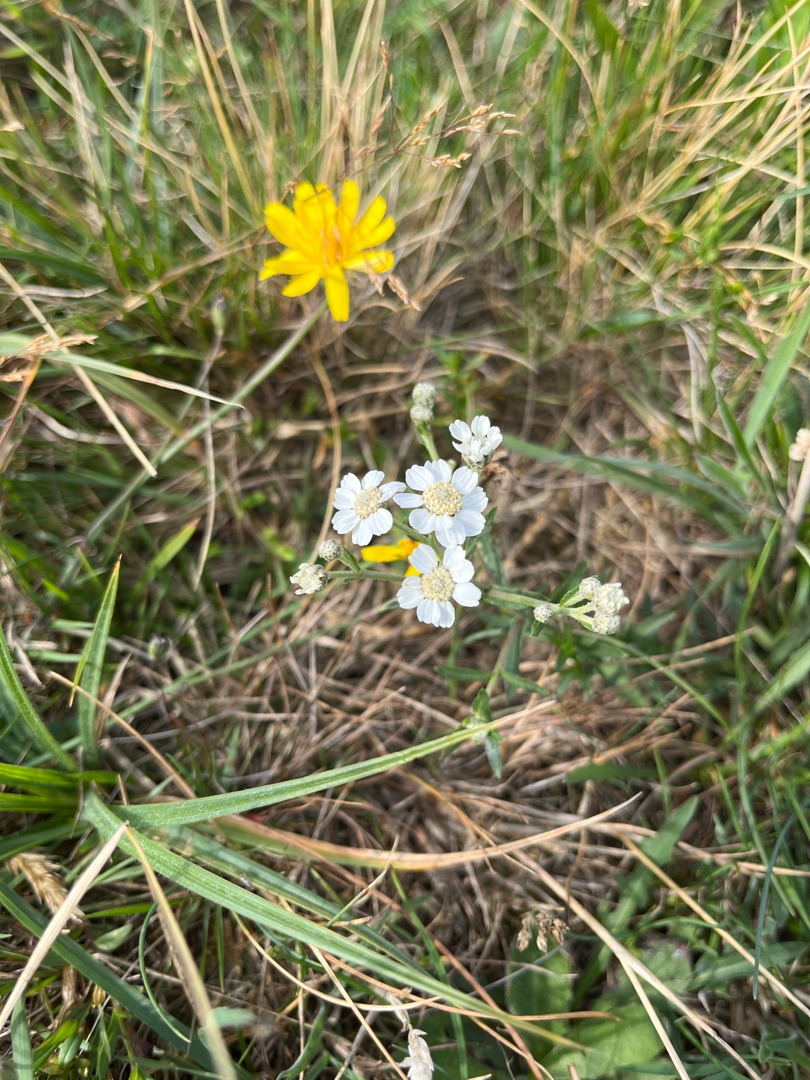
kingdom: Plantae
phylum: Tracheophyta
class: Magnoliopsida
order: Asterales
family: Asteraceae
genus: Achillea
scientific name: Achillea ptarmica
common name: Nyse-røllike
